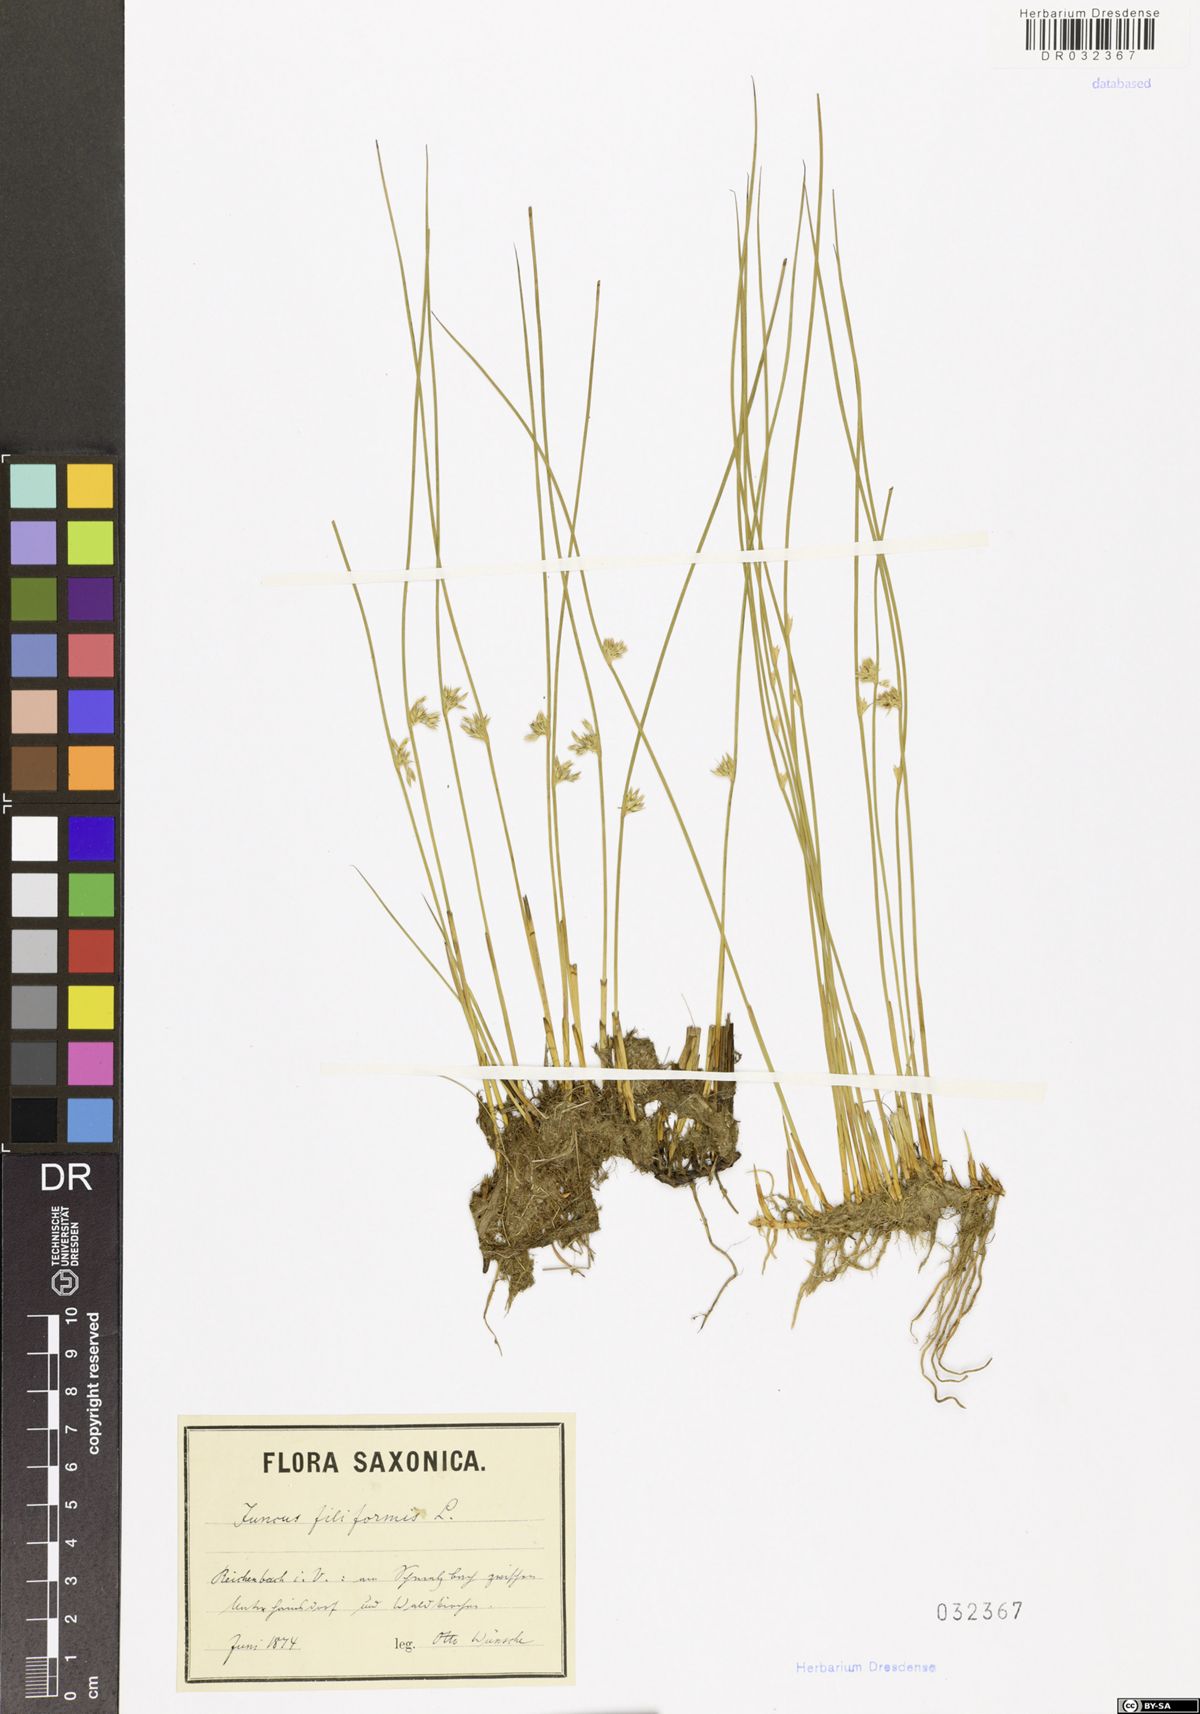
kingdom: Plantae
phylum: Tracheophyta
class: Liliopsida
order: Poales
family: Juncaceae
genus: Juncus
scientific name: Juncus filiformis
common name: Thread rush
